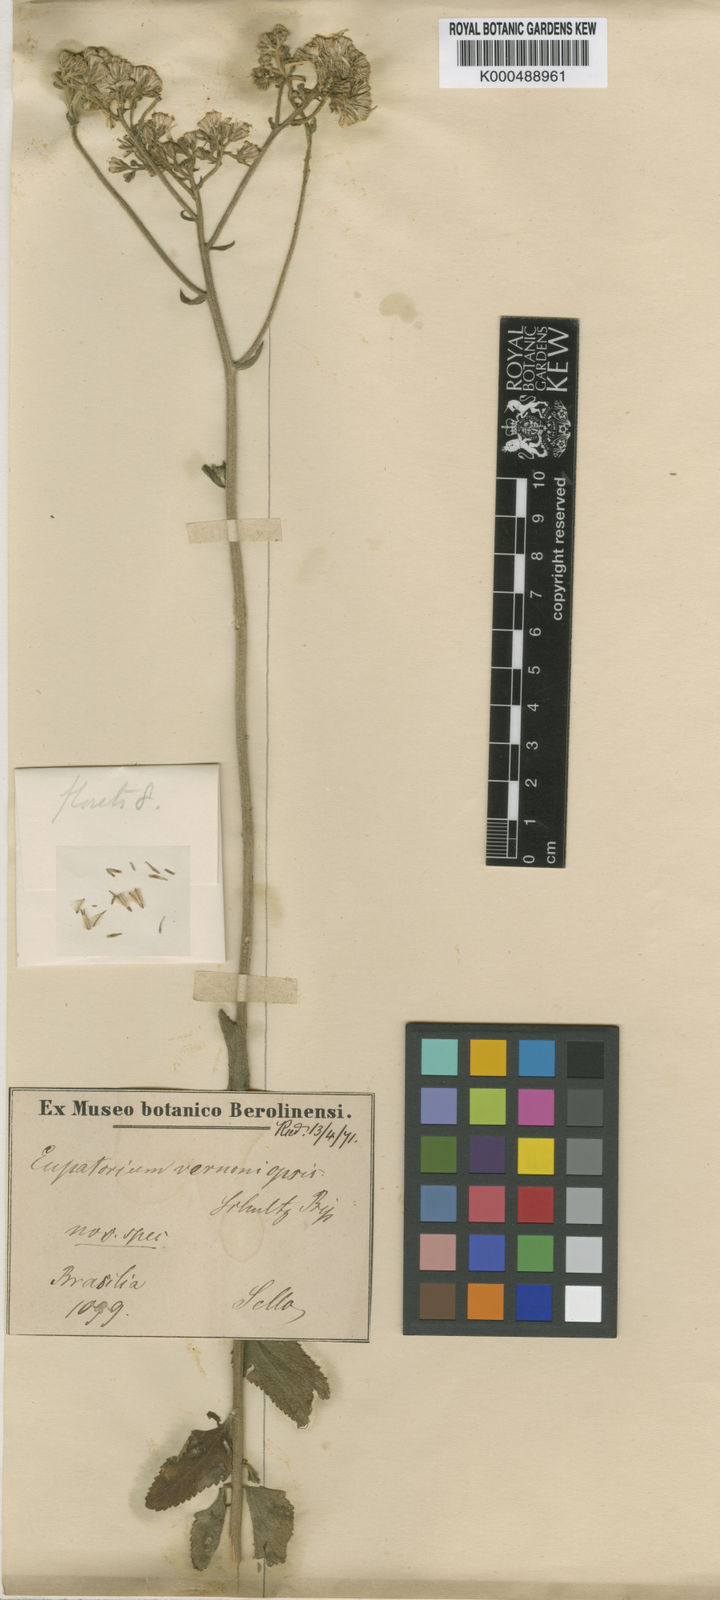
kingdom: Plantae
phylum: Tracheophyta
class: Magnoliopsida
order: Asterales
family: Asteraceae
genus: Gyptis
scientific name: Gyptis lanigera
